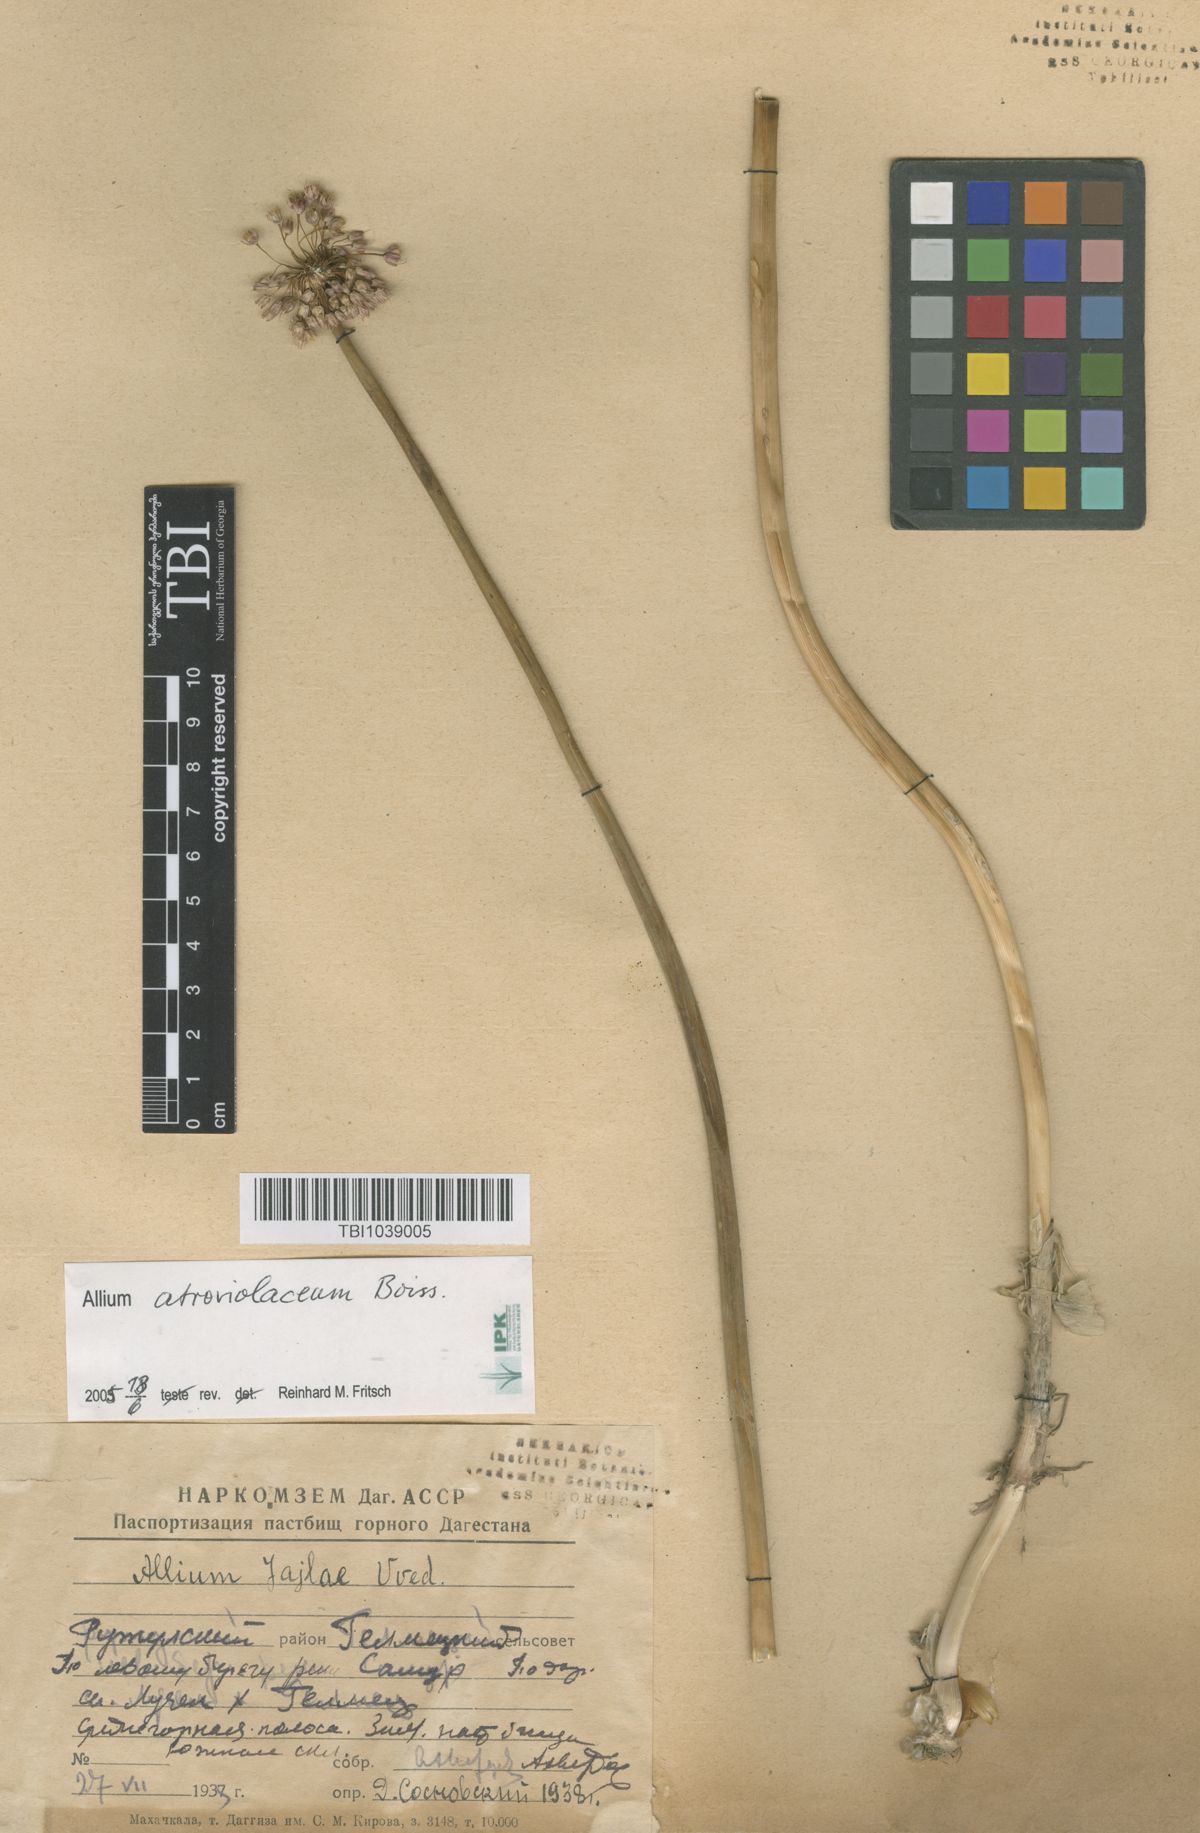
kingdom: Plantae
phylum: Tracheophyta
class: Liliopsida
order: Asparagales
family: Amaryllidaceae
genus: Allium
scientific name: Allium rotundum
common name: Sand leek
